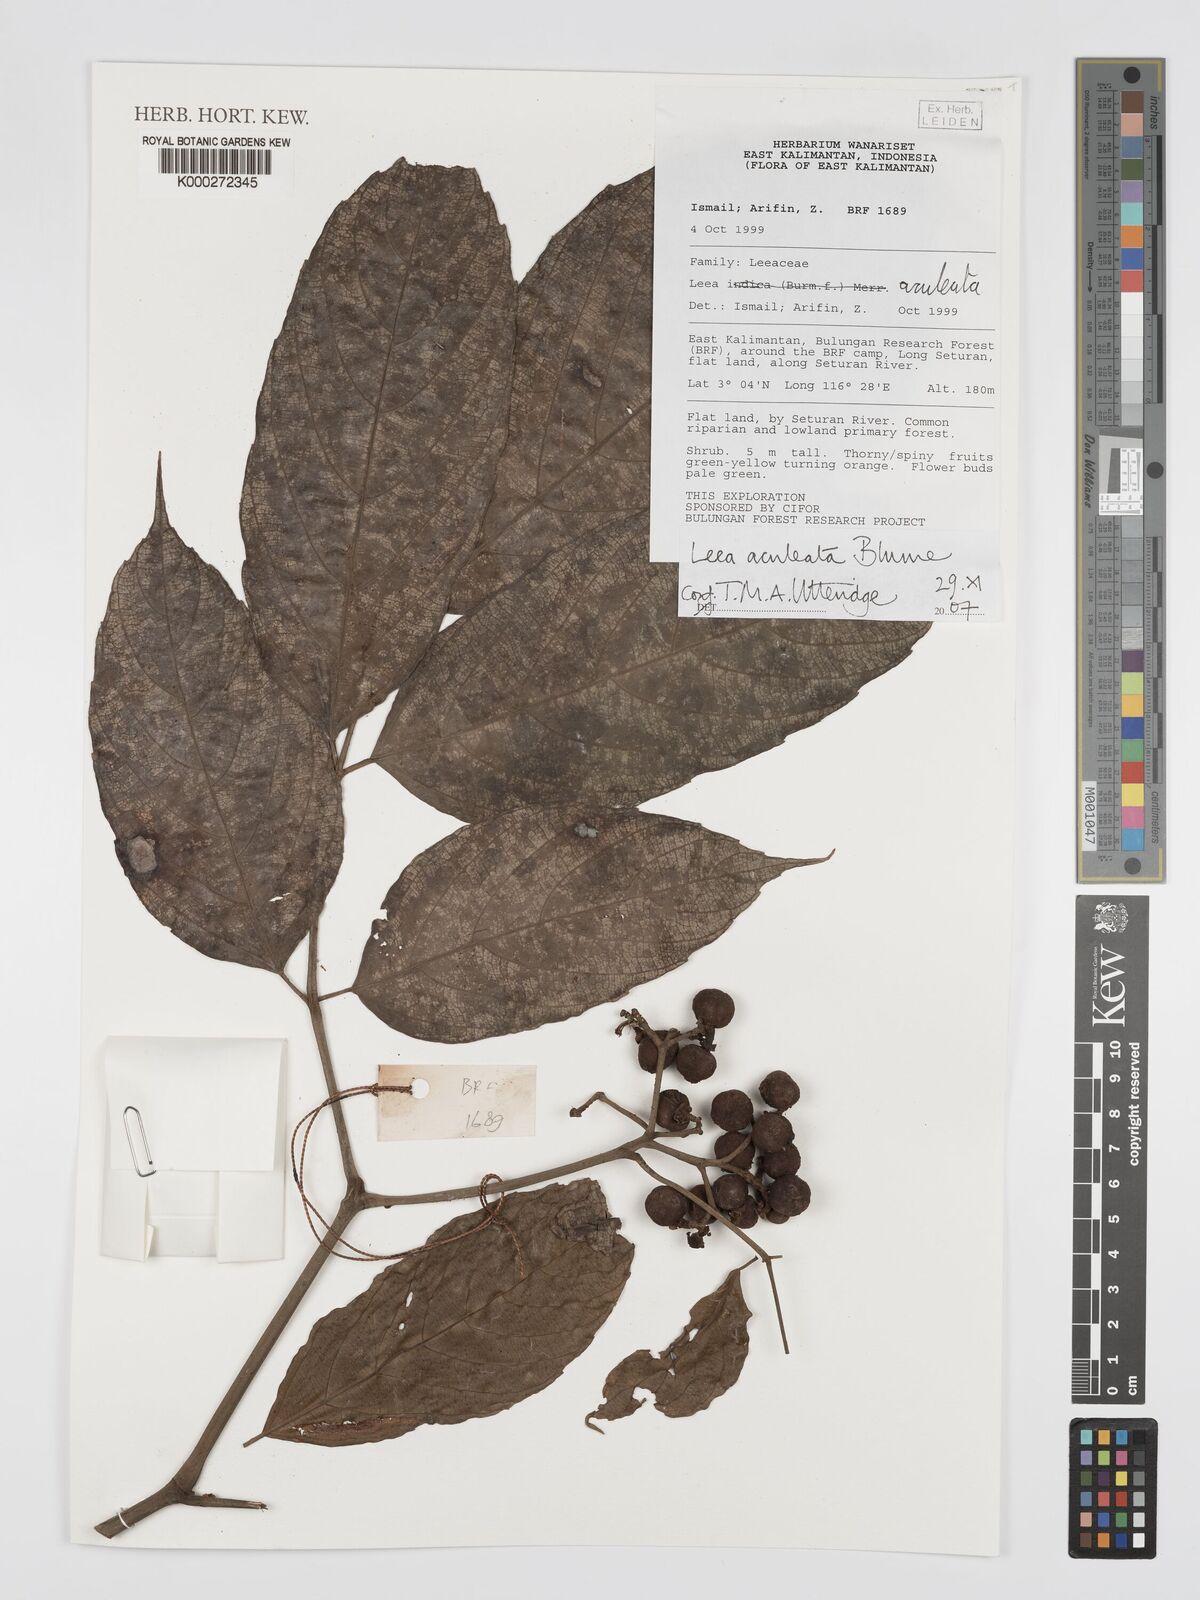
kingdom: Plantae
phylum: Tracheophyta
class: Magnoliopsida
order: Vitales
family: Vitaceae
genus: Leea
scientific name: Leea aculeata
